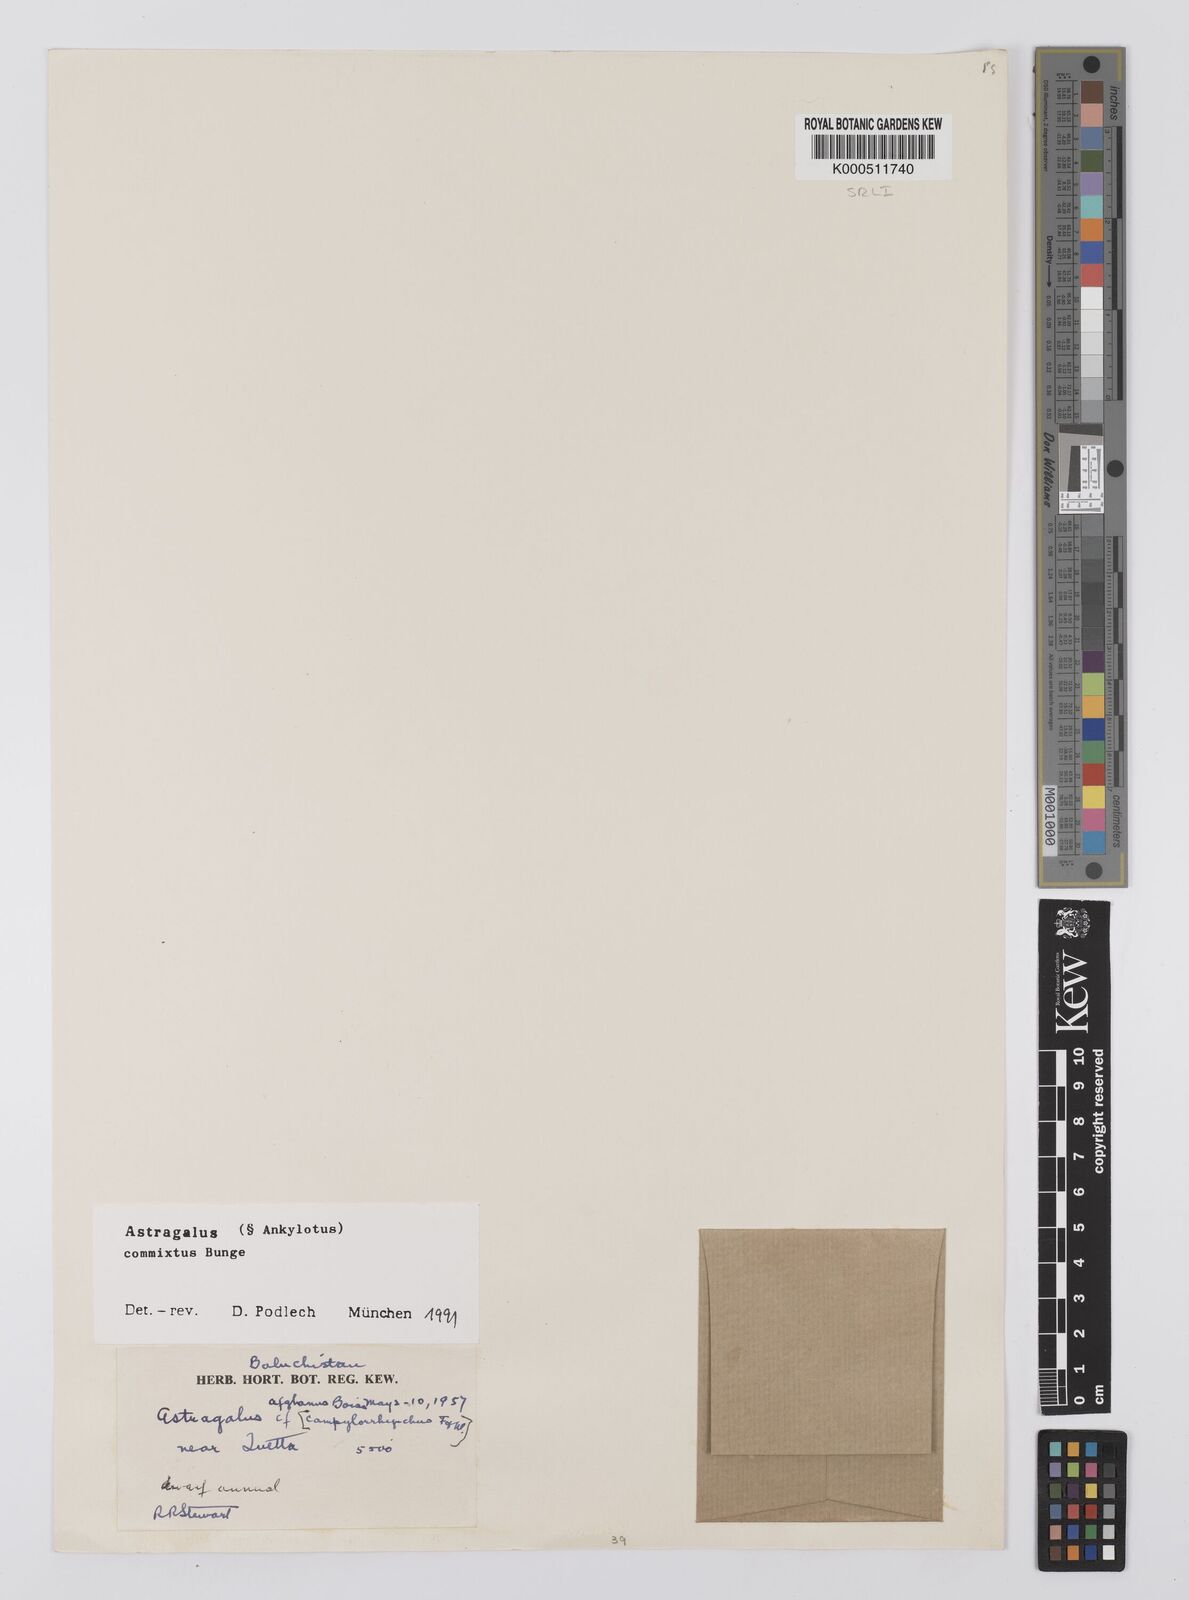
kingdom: Plantae
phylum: Tracheophyta
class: Magnoliopsida
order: Fabales
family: Fabaceae
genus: Astragalus
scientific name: Astragalus commixtus
